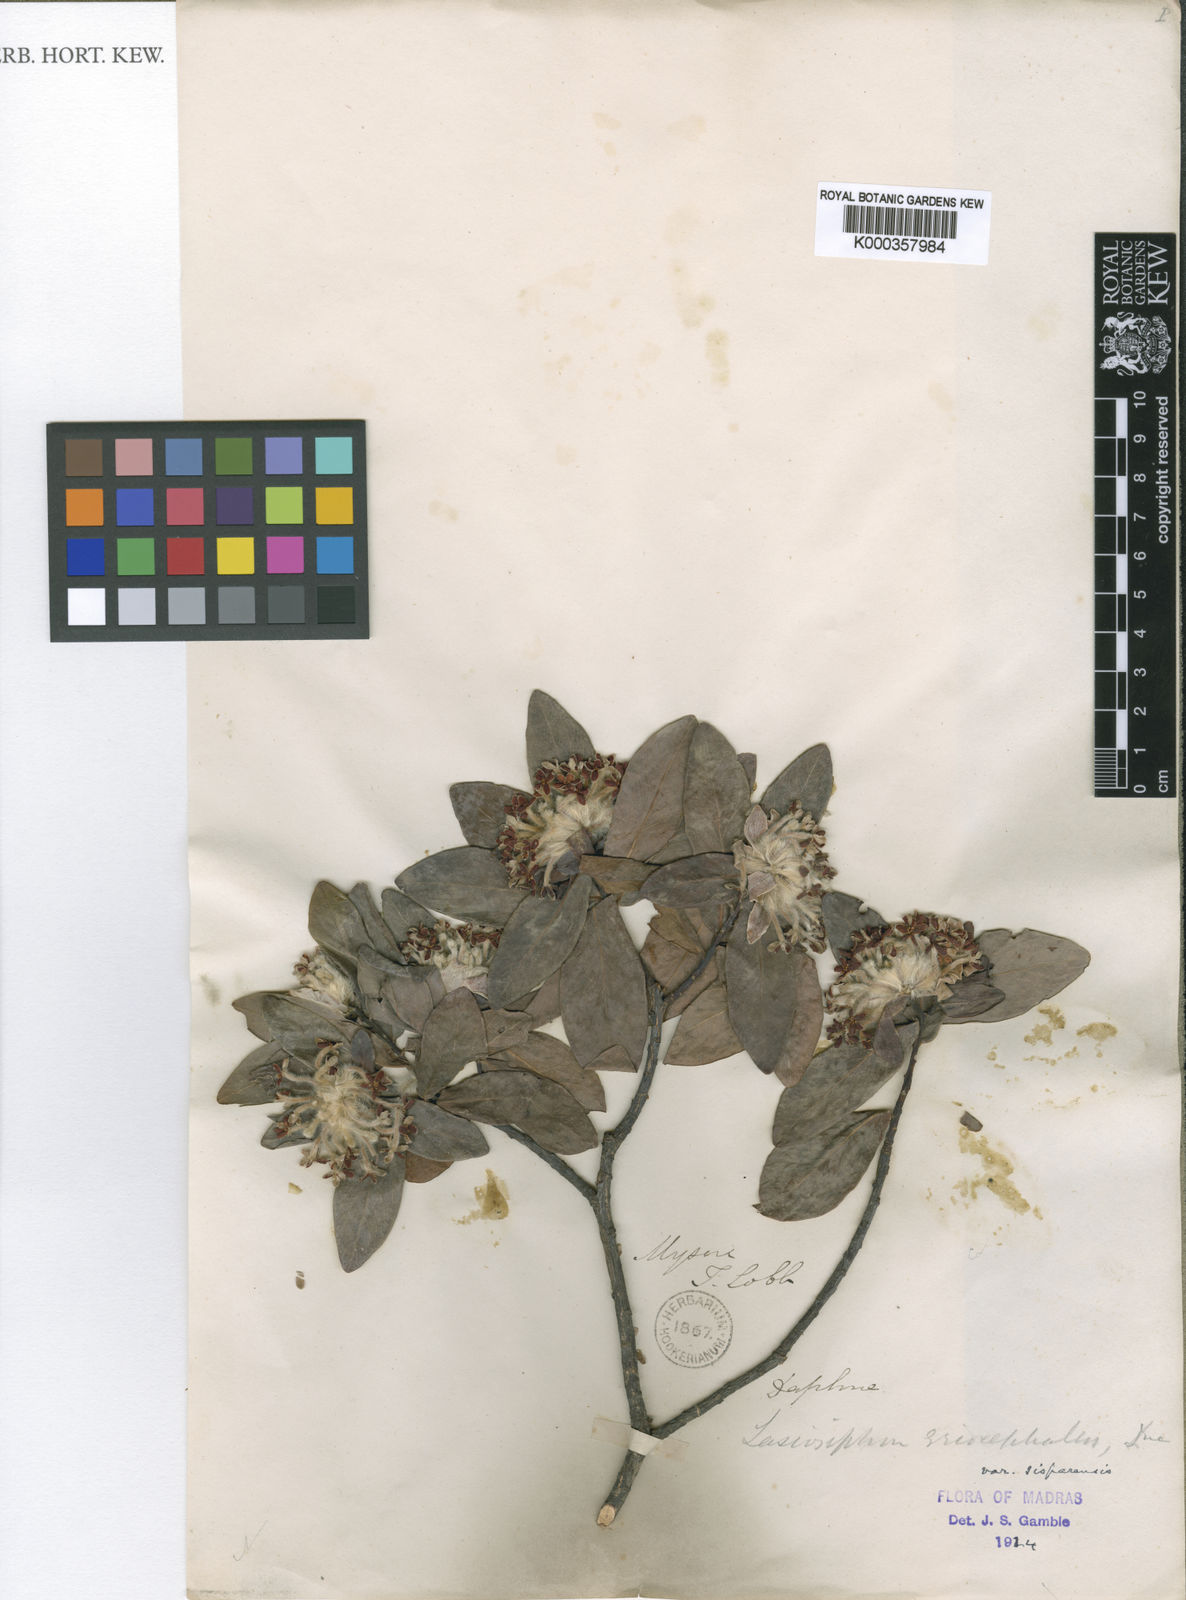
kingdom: Plantae
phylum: Tracheophyta
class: Magnoliopsida
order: Malvales
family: Thymelaeaceae
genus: Gnidia
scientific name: Gnidia glauca
